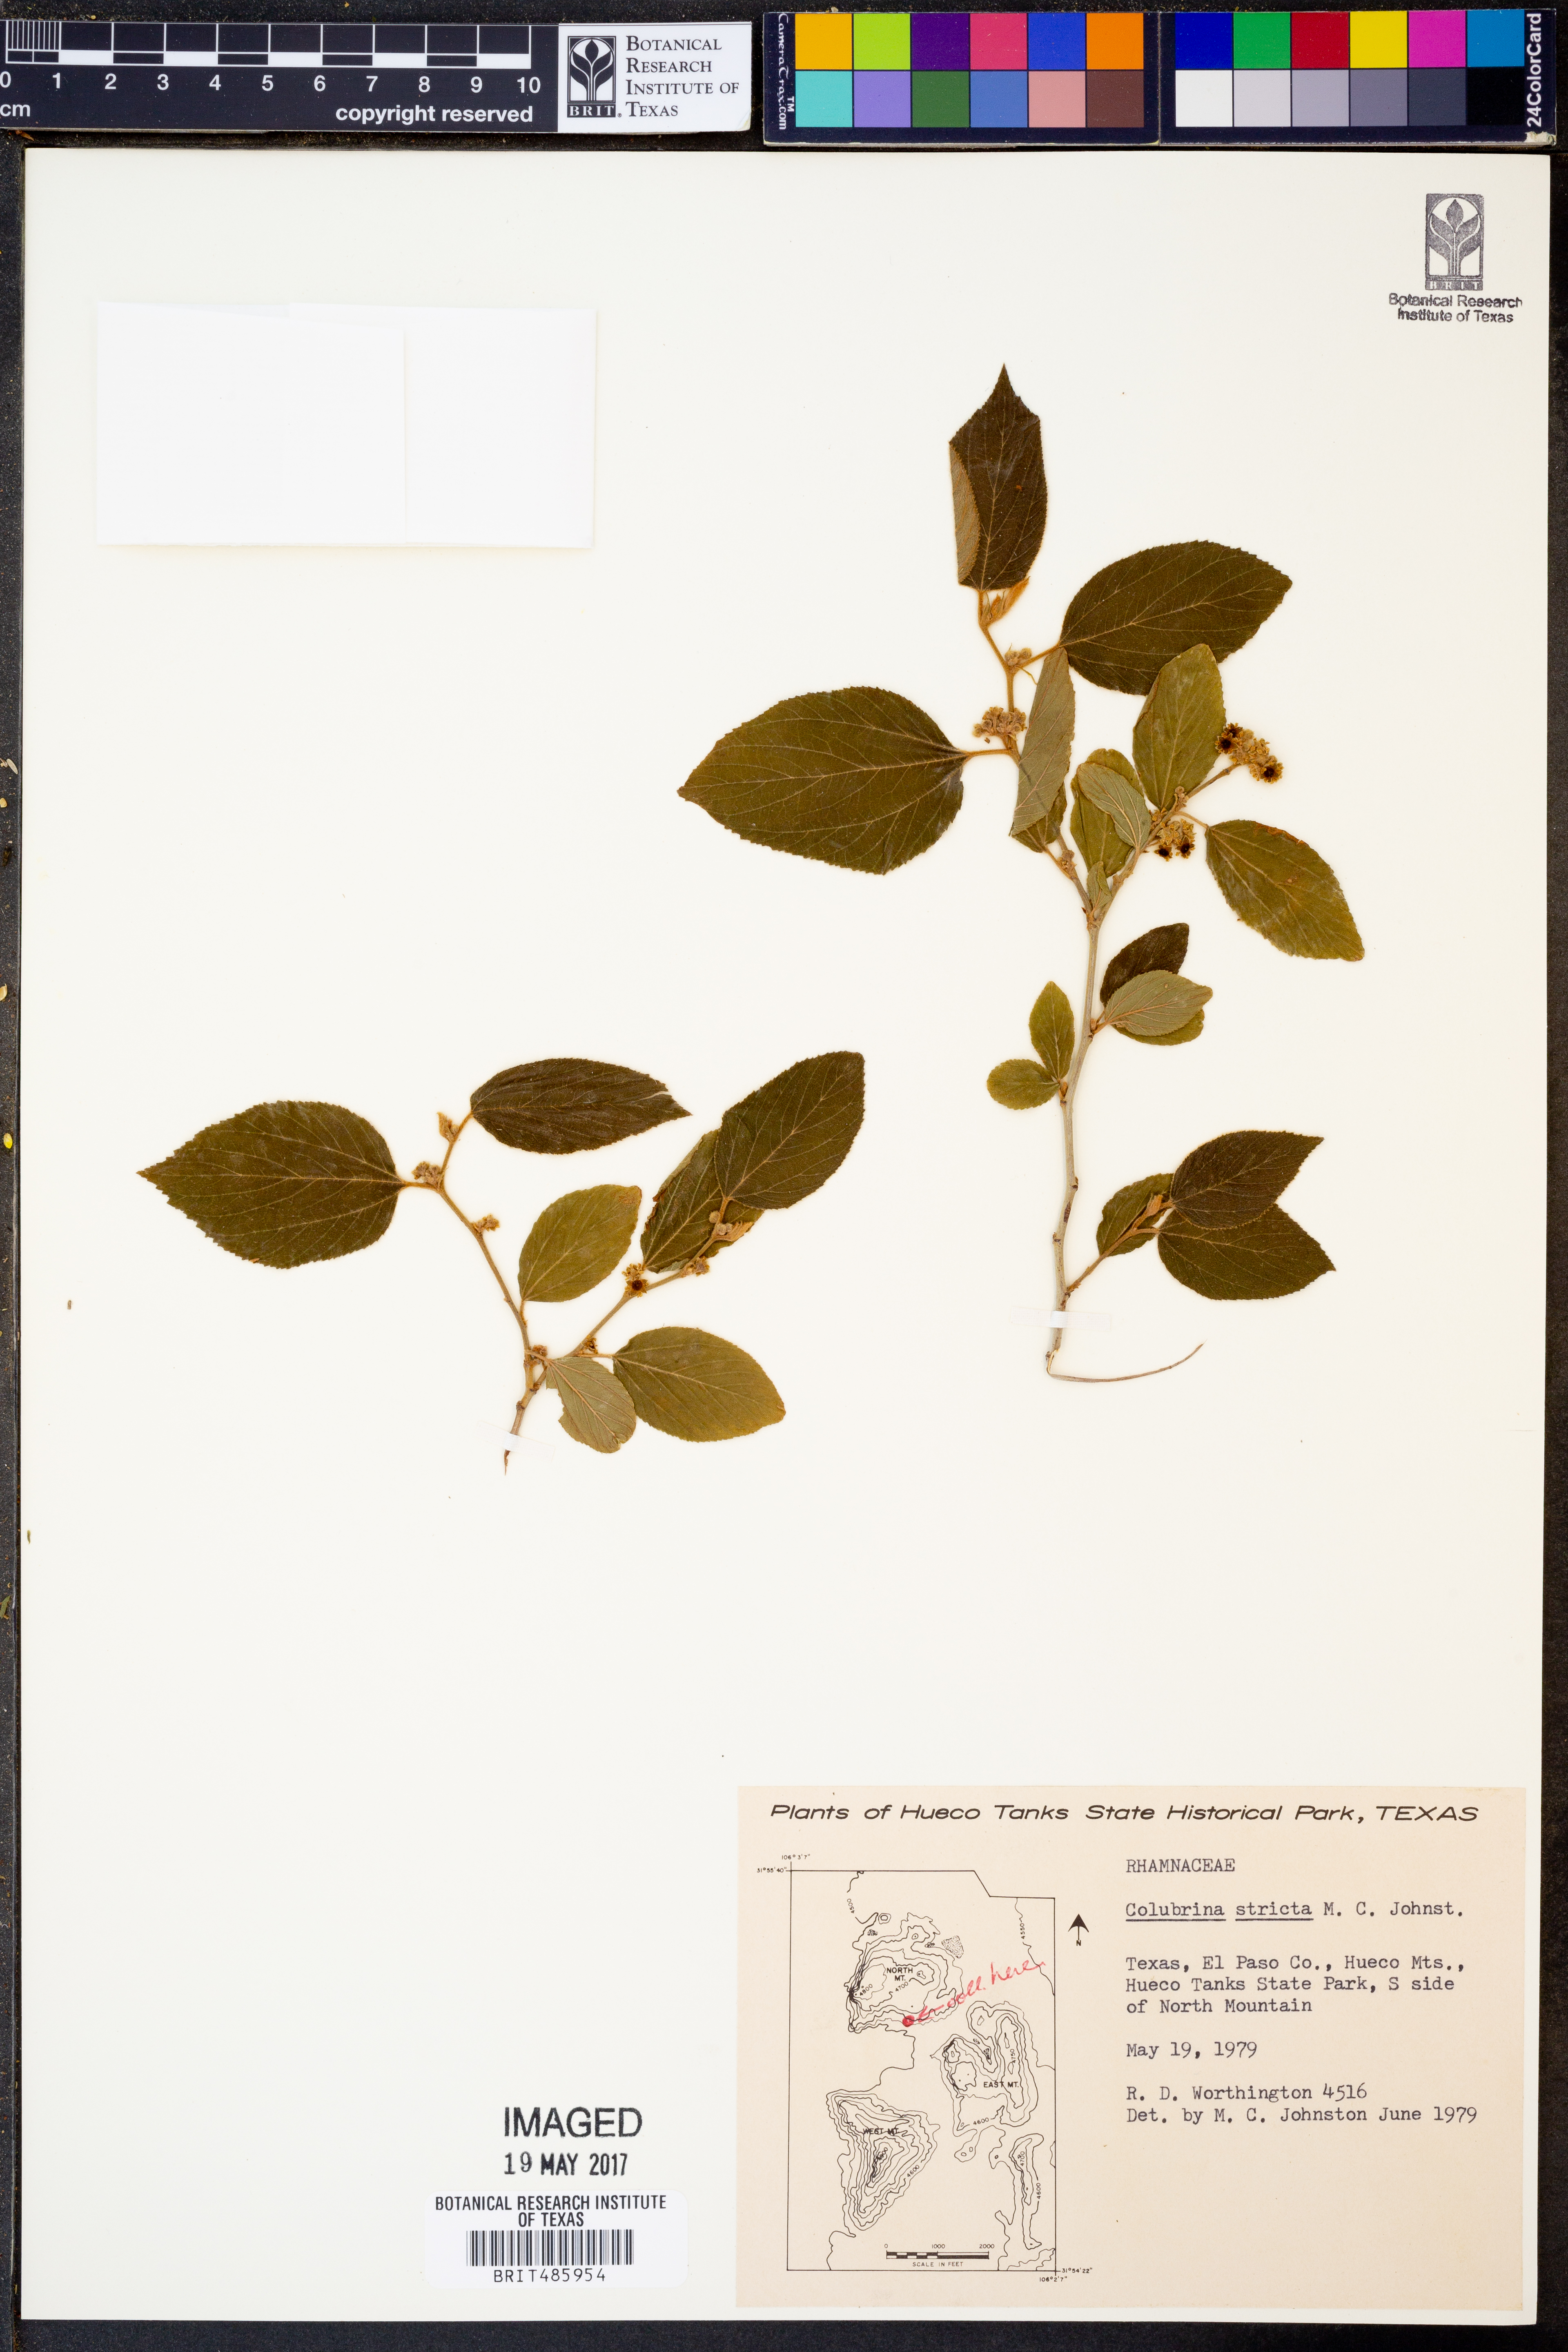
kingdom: Plantae
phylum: Tracheophyta
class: Magnoliopsida
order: Rosales
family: Rhamnaceae
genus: Colubrina
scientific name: Colubrina stricta
